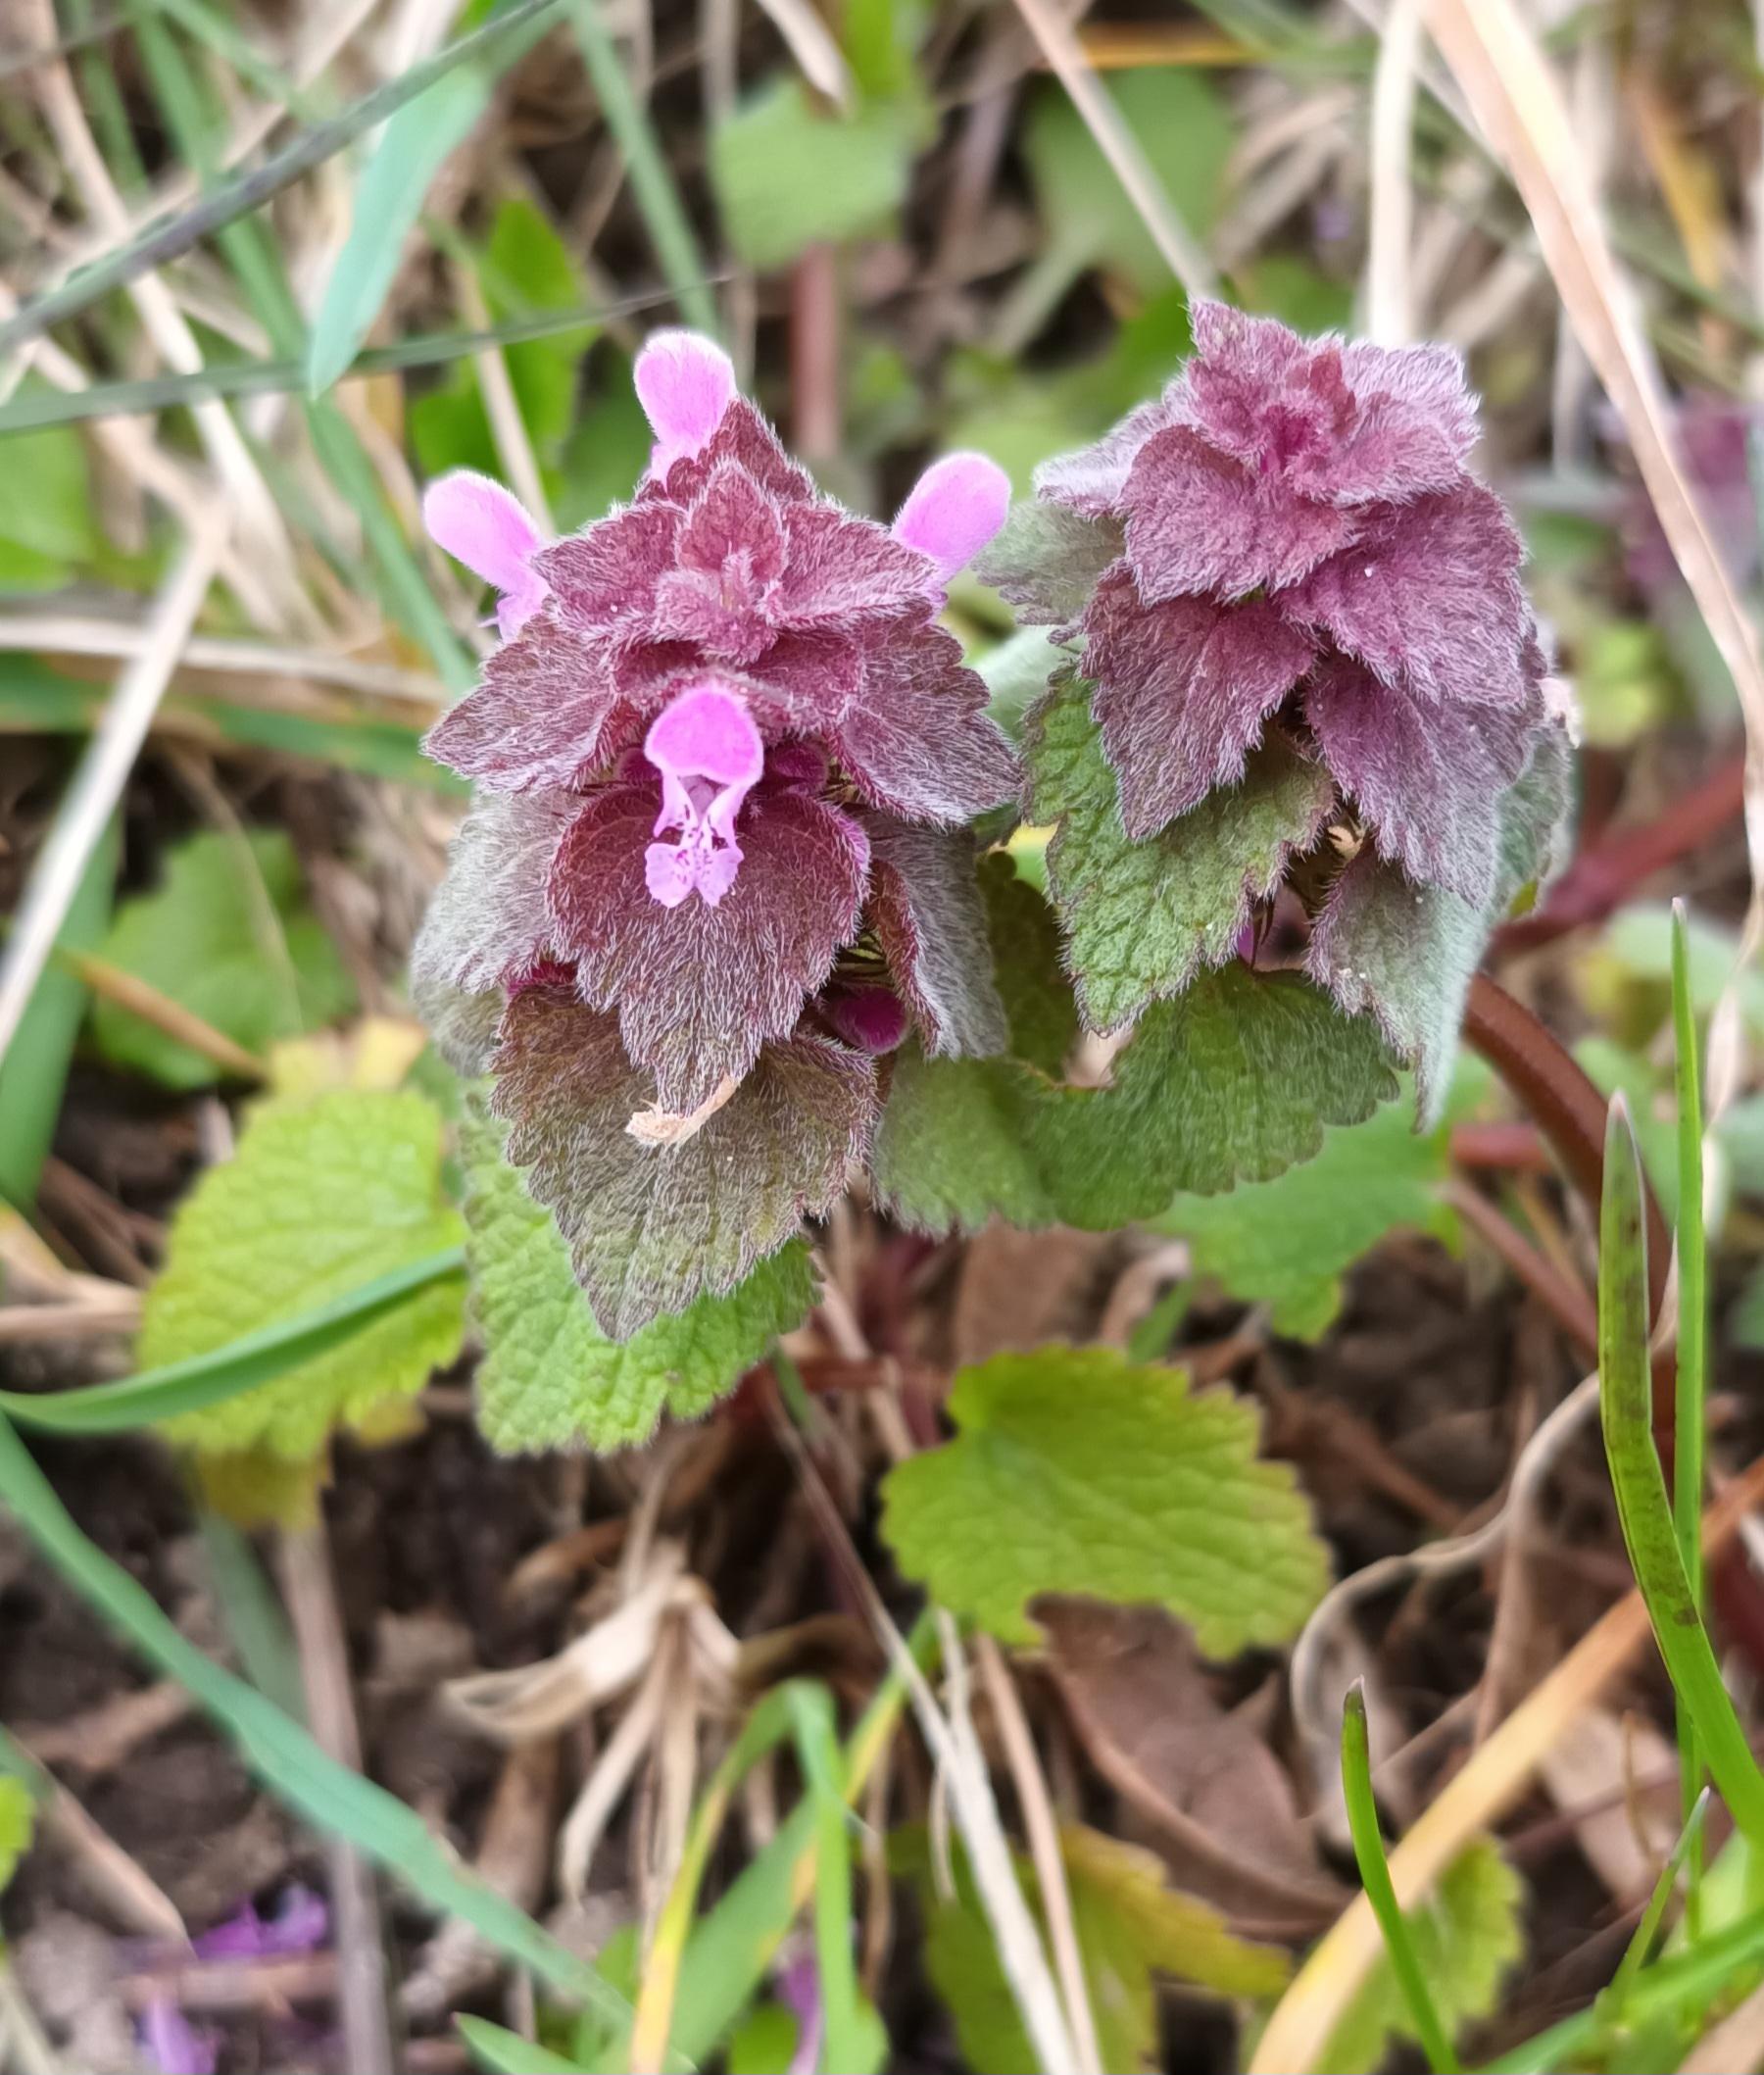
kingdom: Plantae
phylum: Tracheophyta
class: Magnoliopsida
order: Lamiales
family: Lamiaceae
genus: Lamium
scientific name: Lamium purpureum
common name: Rød tvetand
